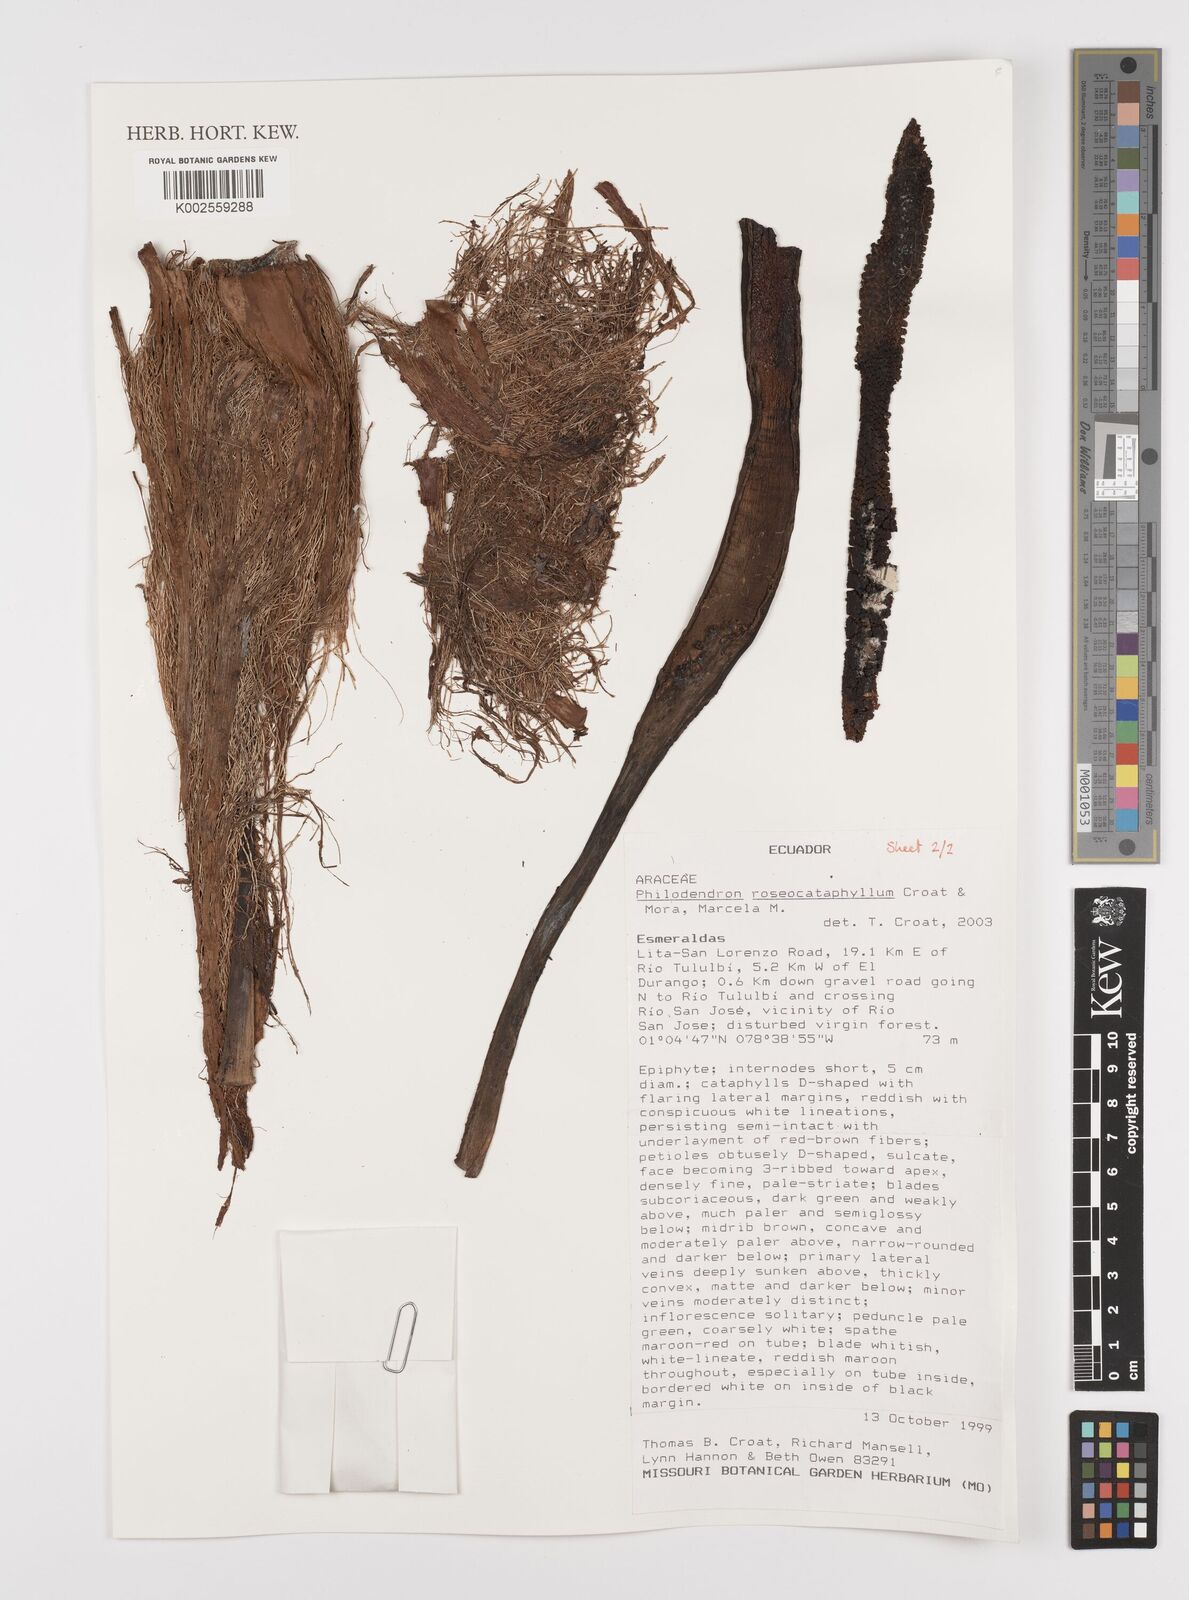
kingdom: Plantae
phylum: Tracheophyta
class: Liliopsida
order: Alismatales
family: Araceae
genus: Philodendron
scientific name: Philodendron roseocataphyllum
